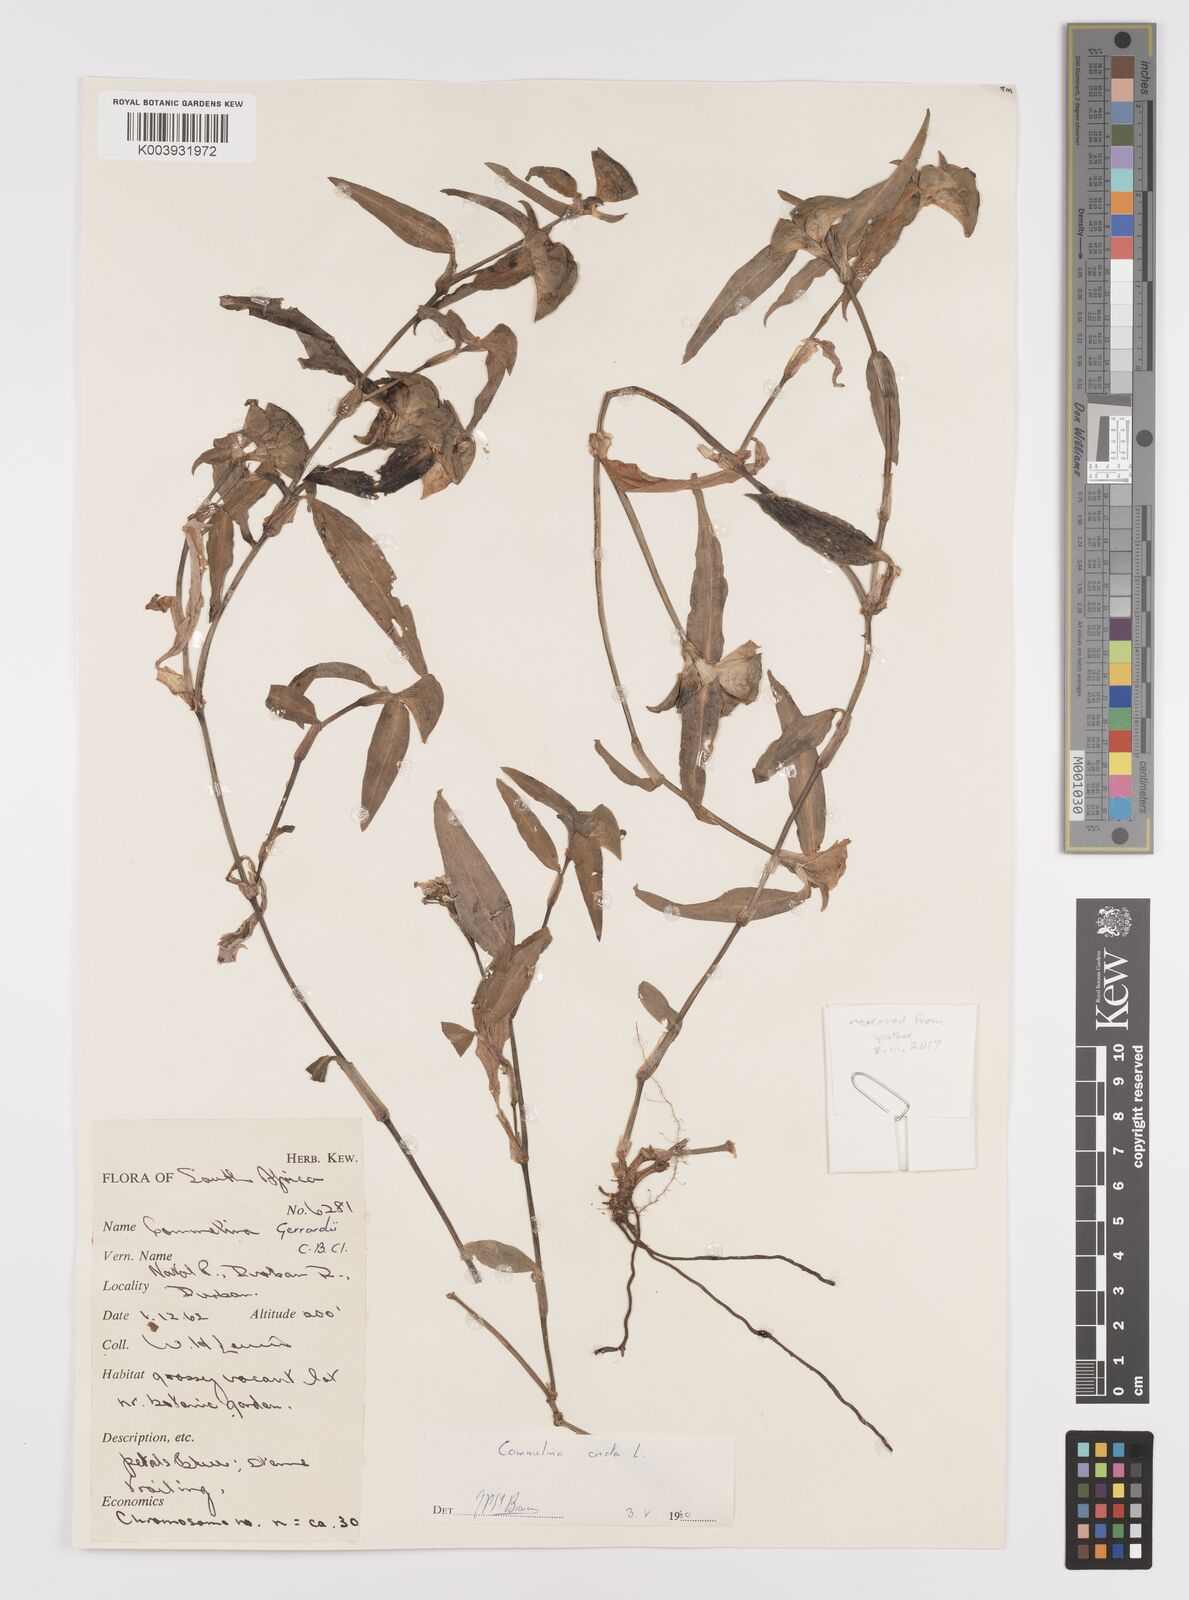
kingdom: Plantae
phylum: Tracheophyta
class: Liliopsida
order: Commelinales
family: Commelinaceae
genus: Commelina
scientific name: Commelina erecta
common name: Blousel blommetjie
